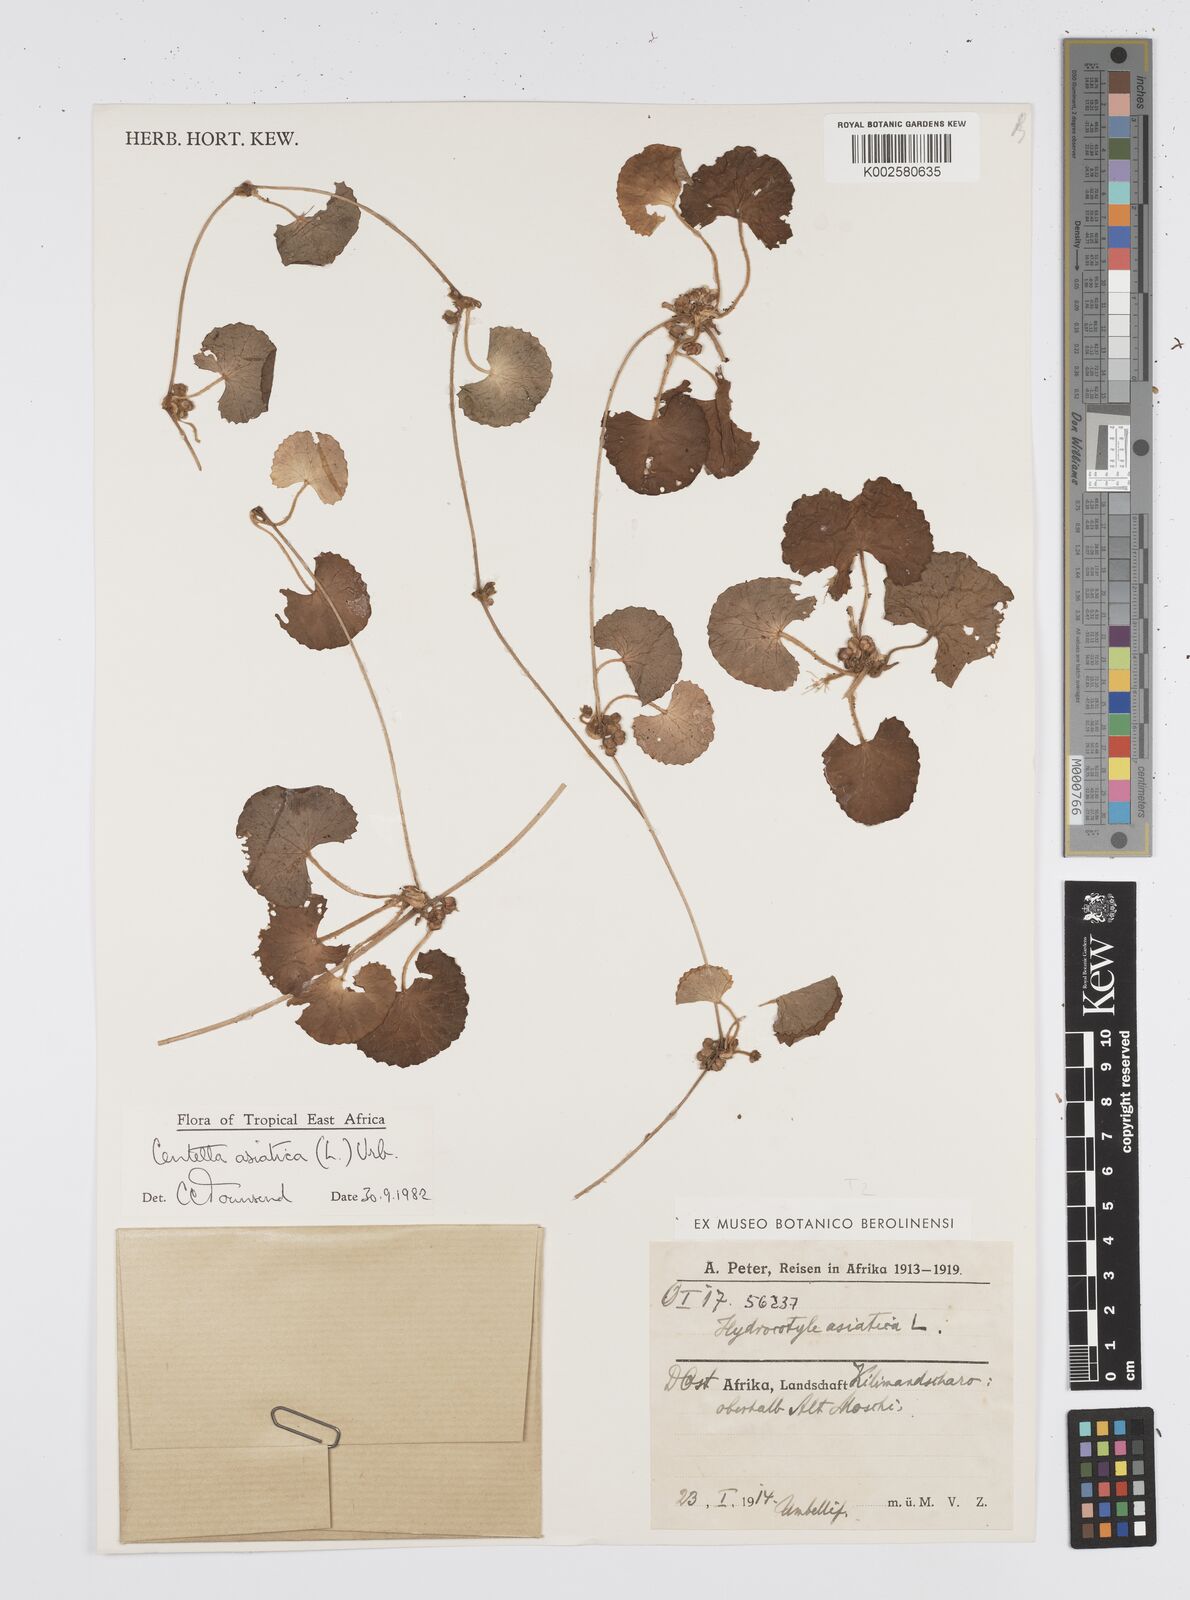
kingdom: Plantae
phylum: Tracheophyta
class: Magnoliopsida
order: Apiales
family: Apiaceae
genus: Centella
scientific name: Centella asiatica
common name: Spadeleaf
